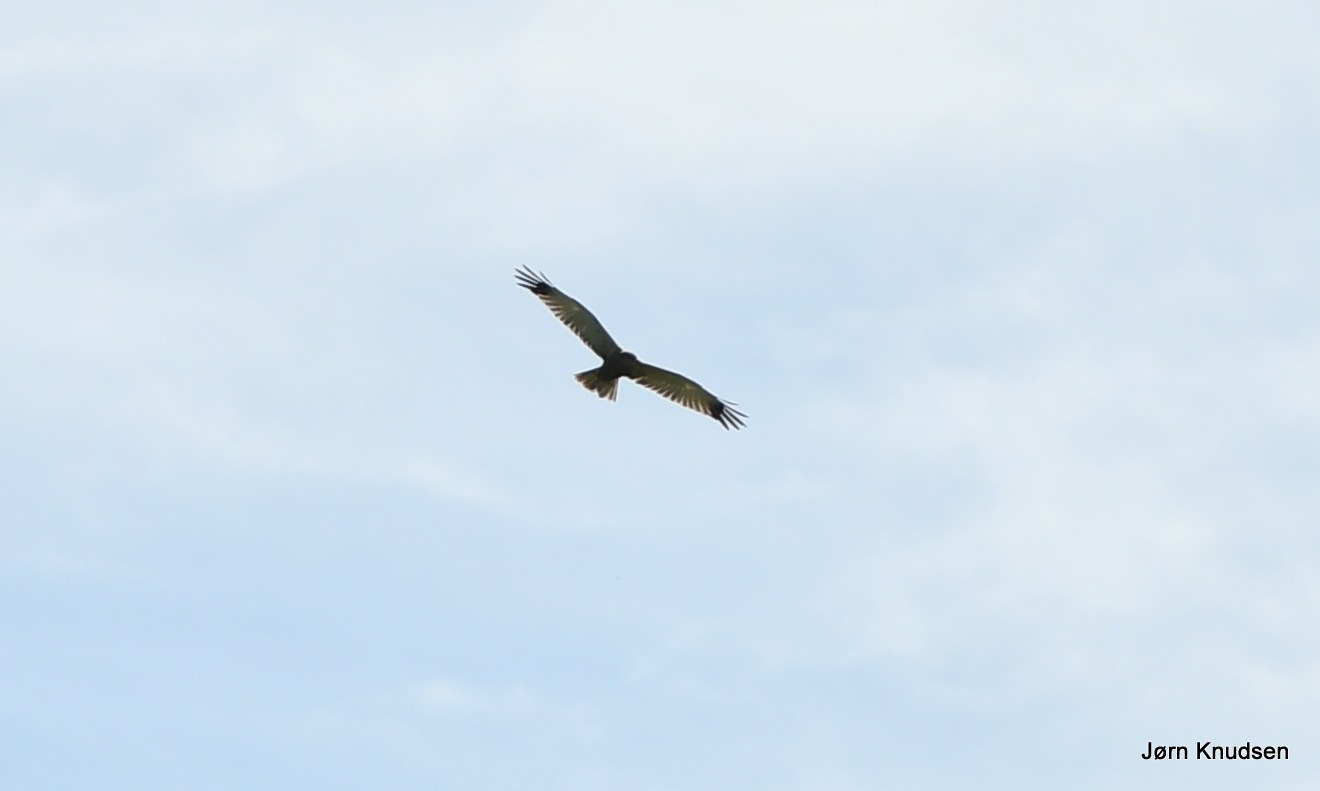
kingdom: Animalia
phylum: Chordata
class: Aves
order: Accipitriformes
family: Accipitridae
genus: Circus
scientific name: Circus aeruginosus
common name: Rørhøg
